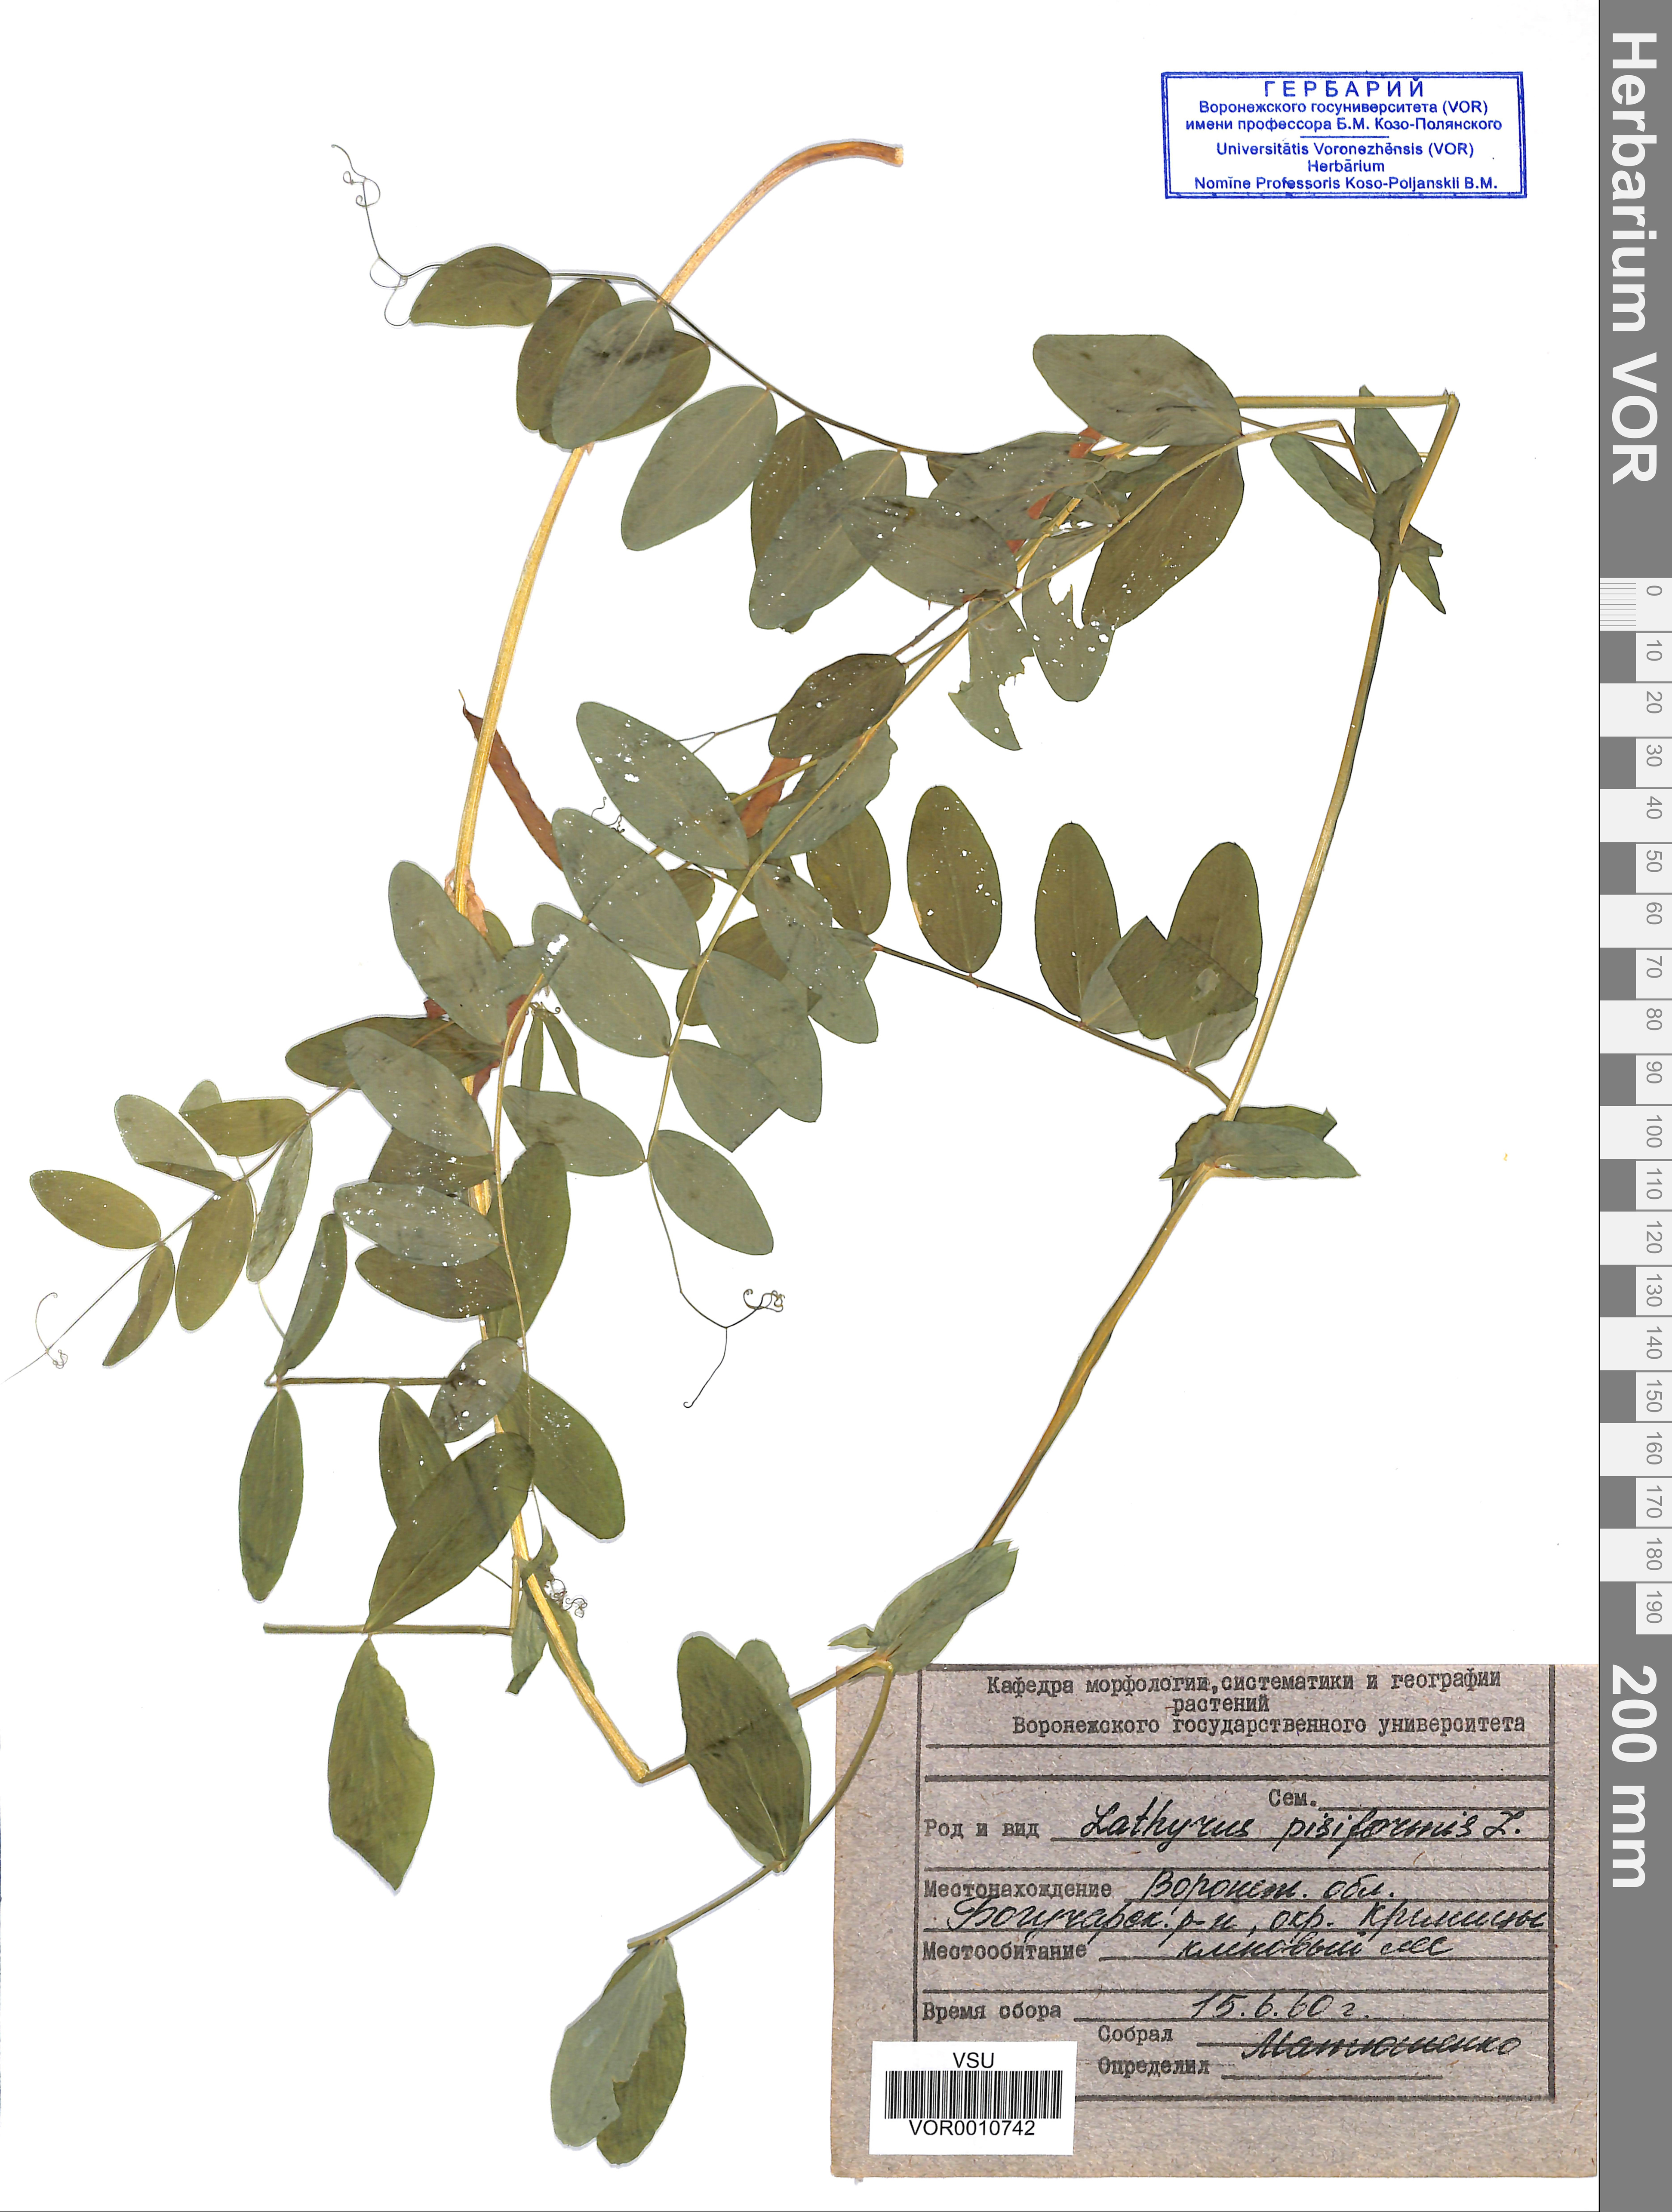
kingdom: Plantae
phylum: Tracheophyta
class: Magnoliopsida
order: Fabales
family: Fabaceae
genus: Lathyrus
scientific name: Lathyrus pisiformis
